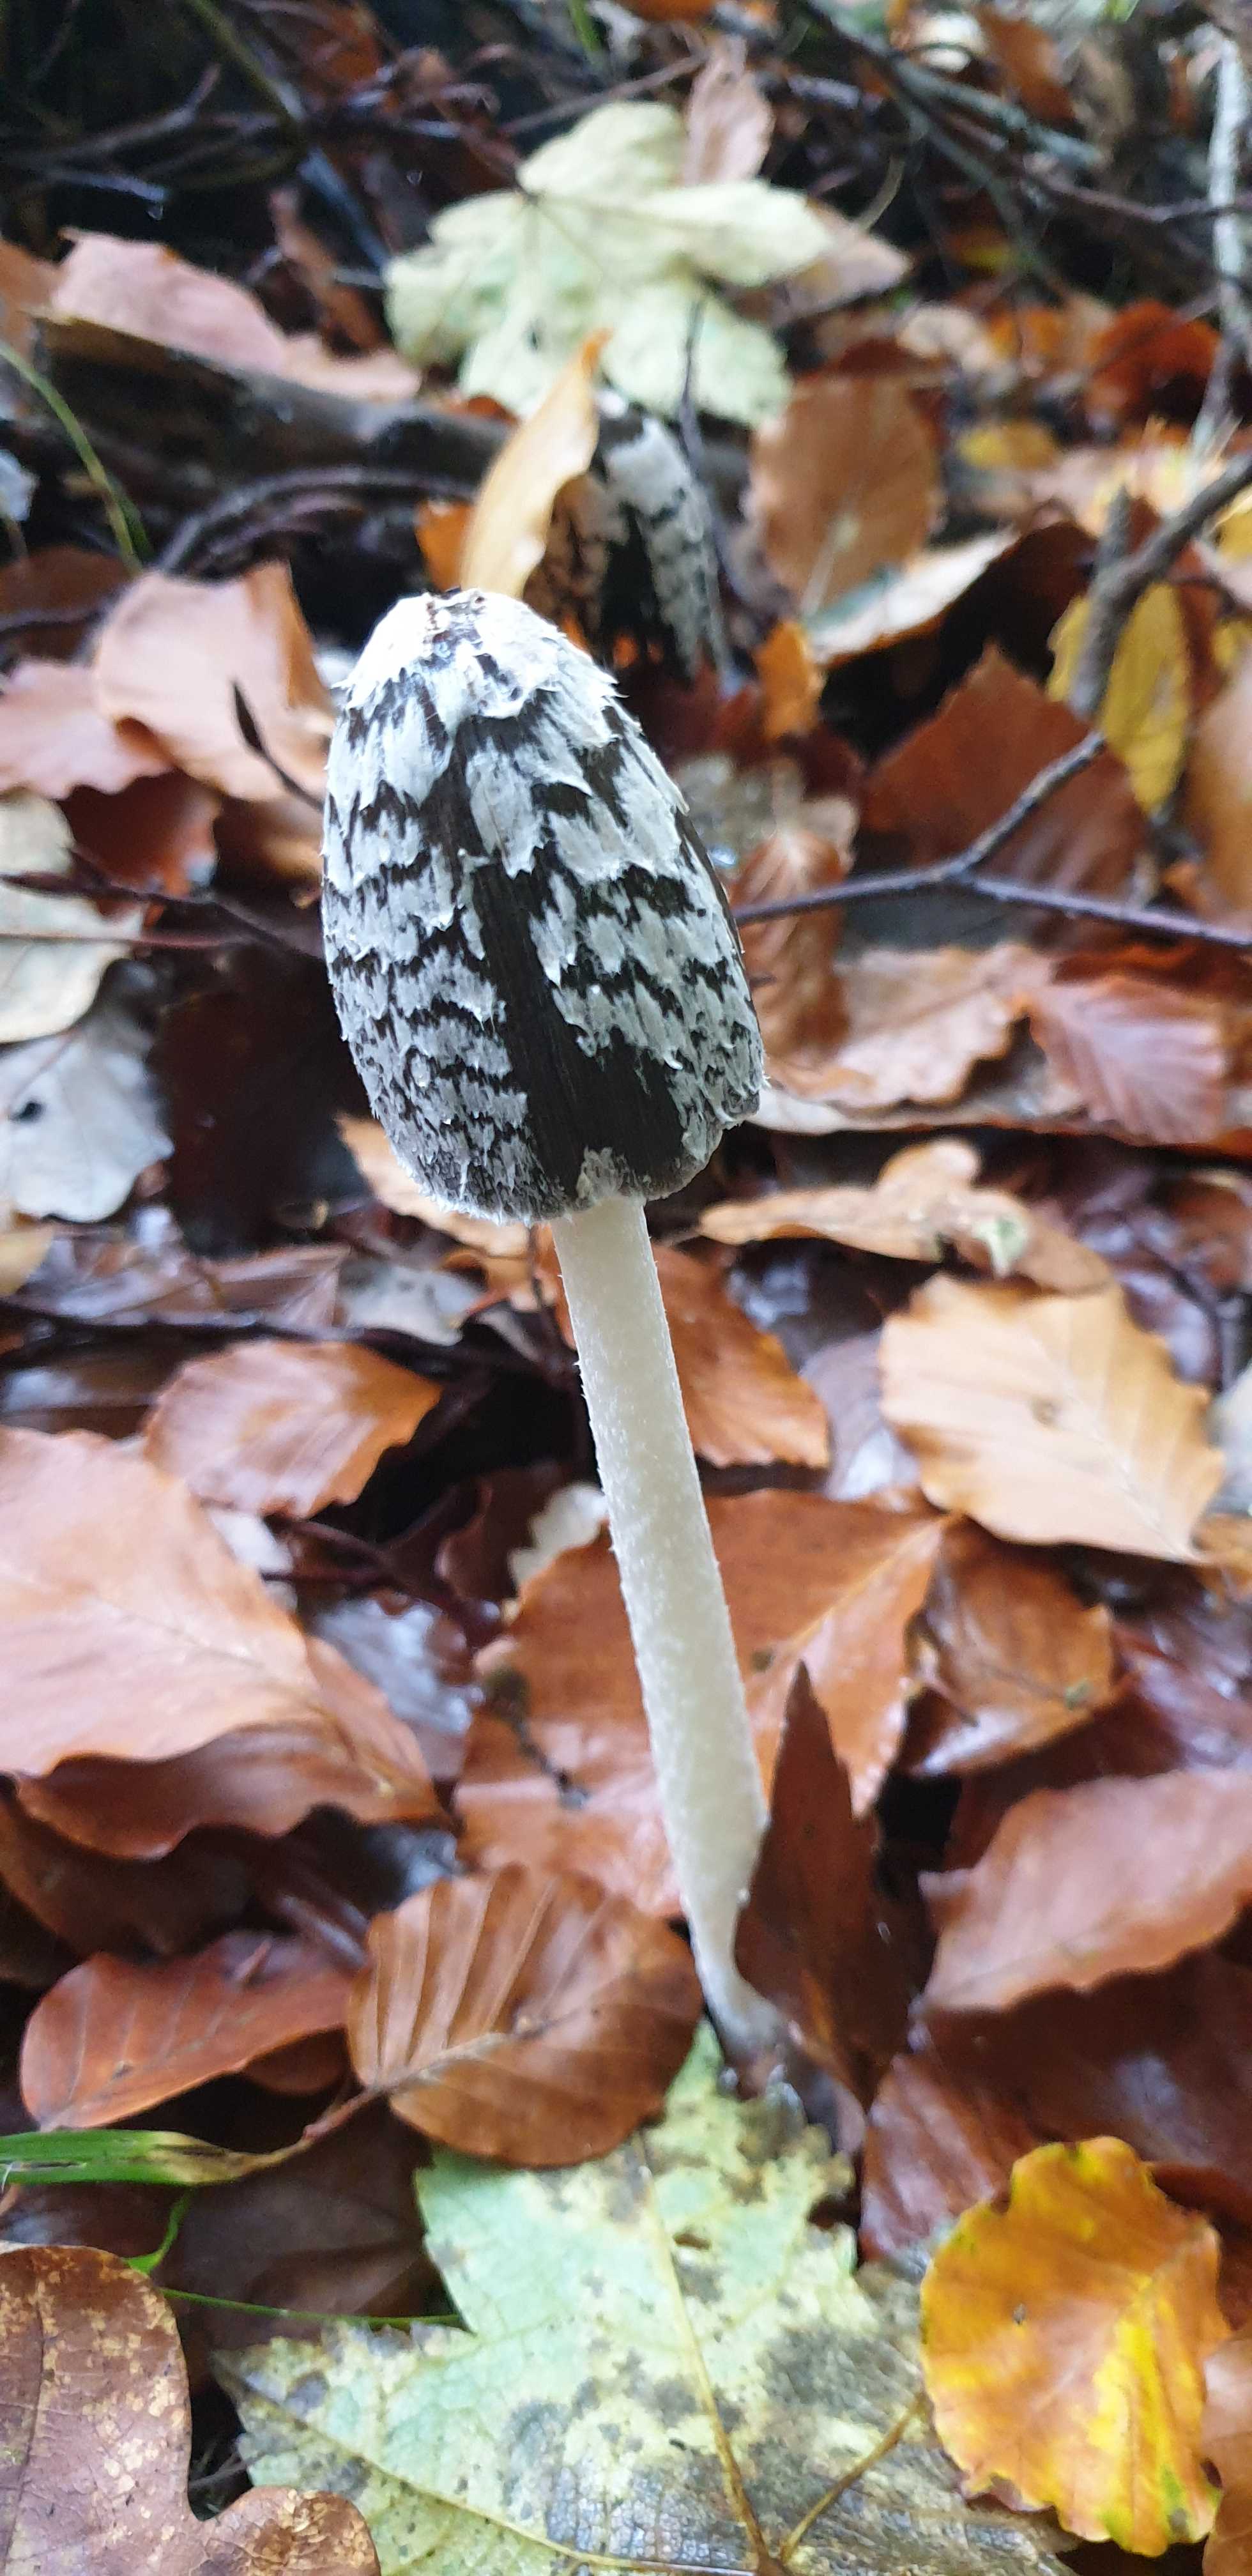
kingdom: Fungi
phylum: Basidiomycota
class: Agaricomycetes
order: Agaricales
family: Psathyrellaceae
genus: Coprinopsis
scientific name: Coprinopsis picacea
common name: skade-blækhat
